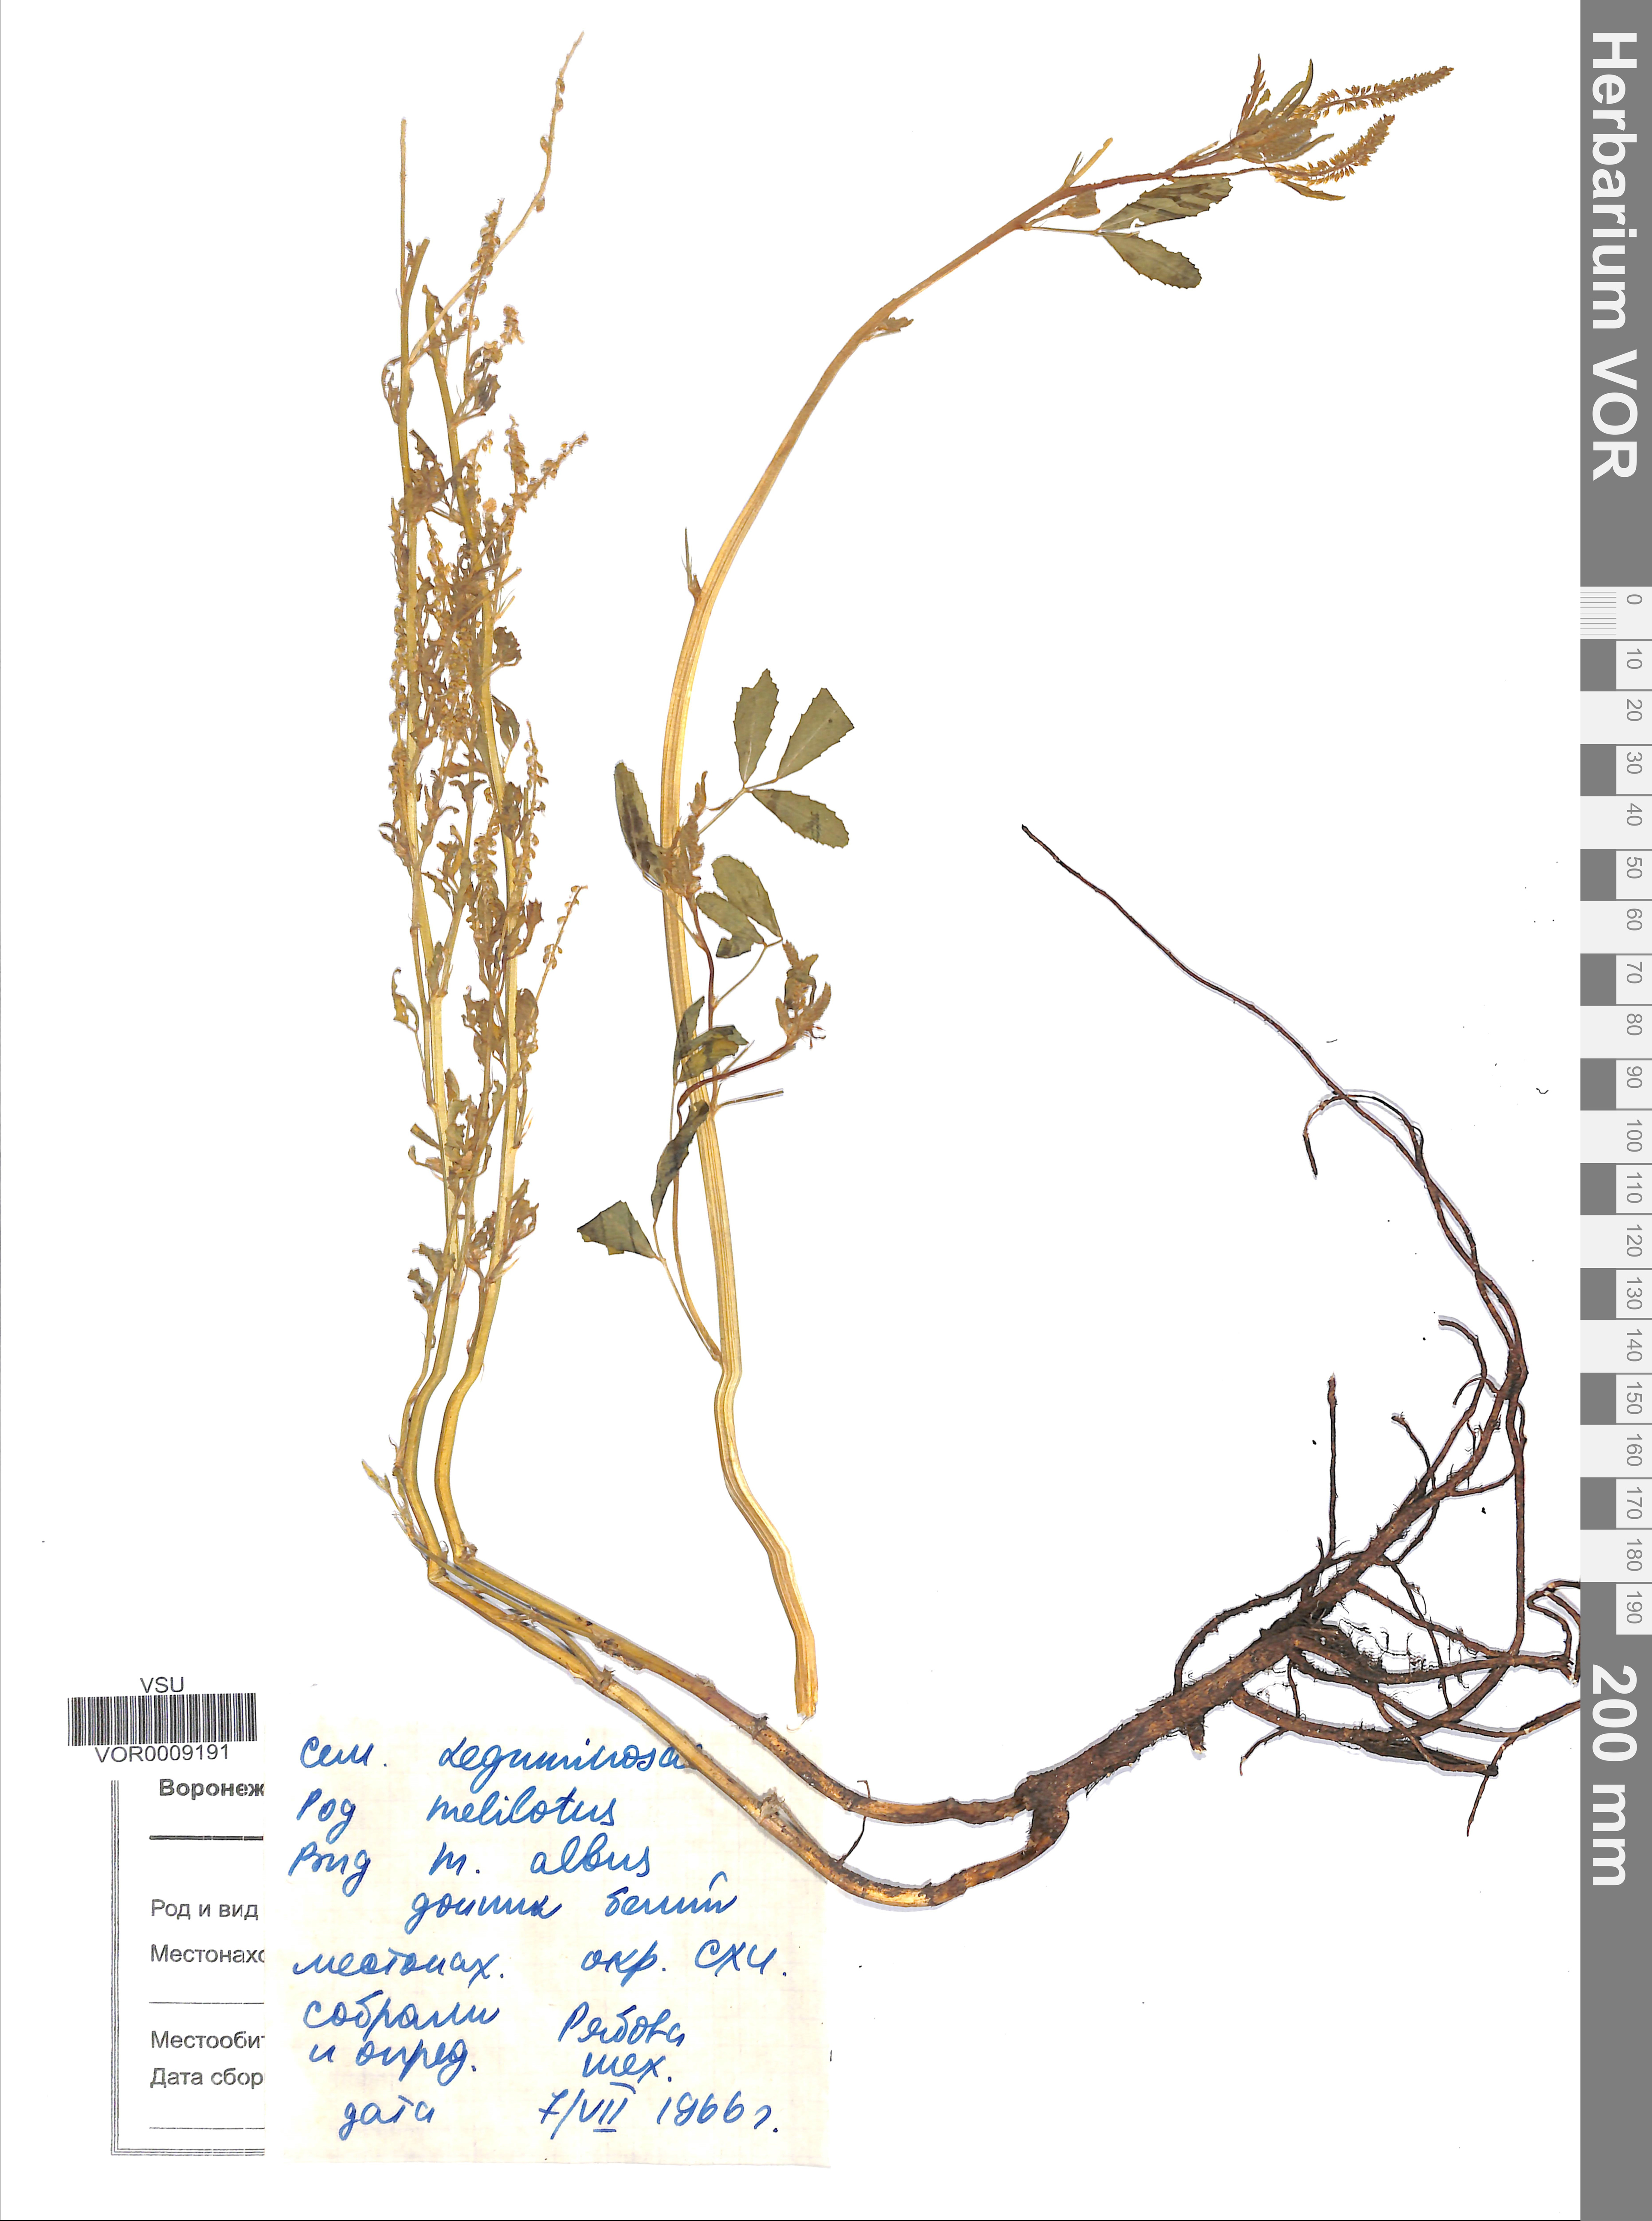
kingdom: Plantae
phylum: Tracheophyta
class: Magnoliopsida
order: Fabales
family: Fabaceae
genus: Melilotus
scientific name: Melilotus albus
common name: White melilot
